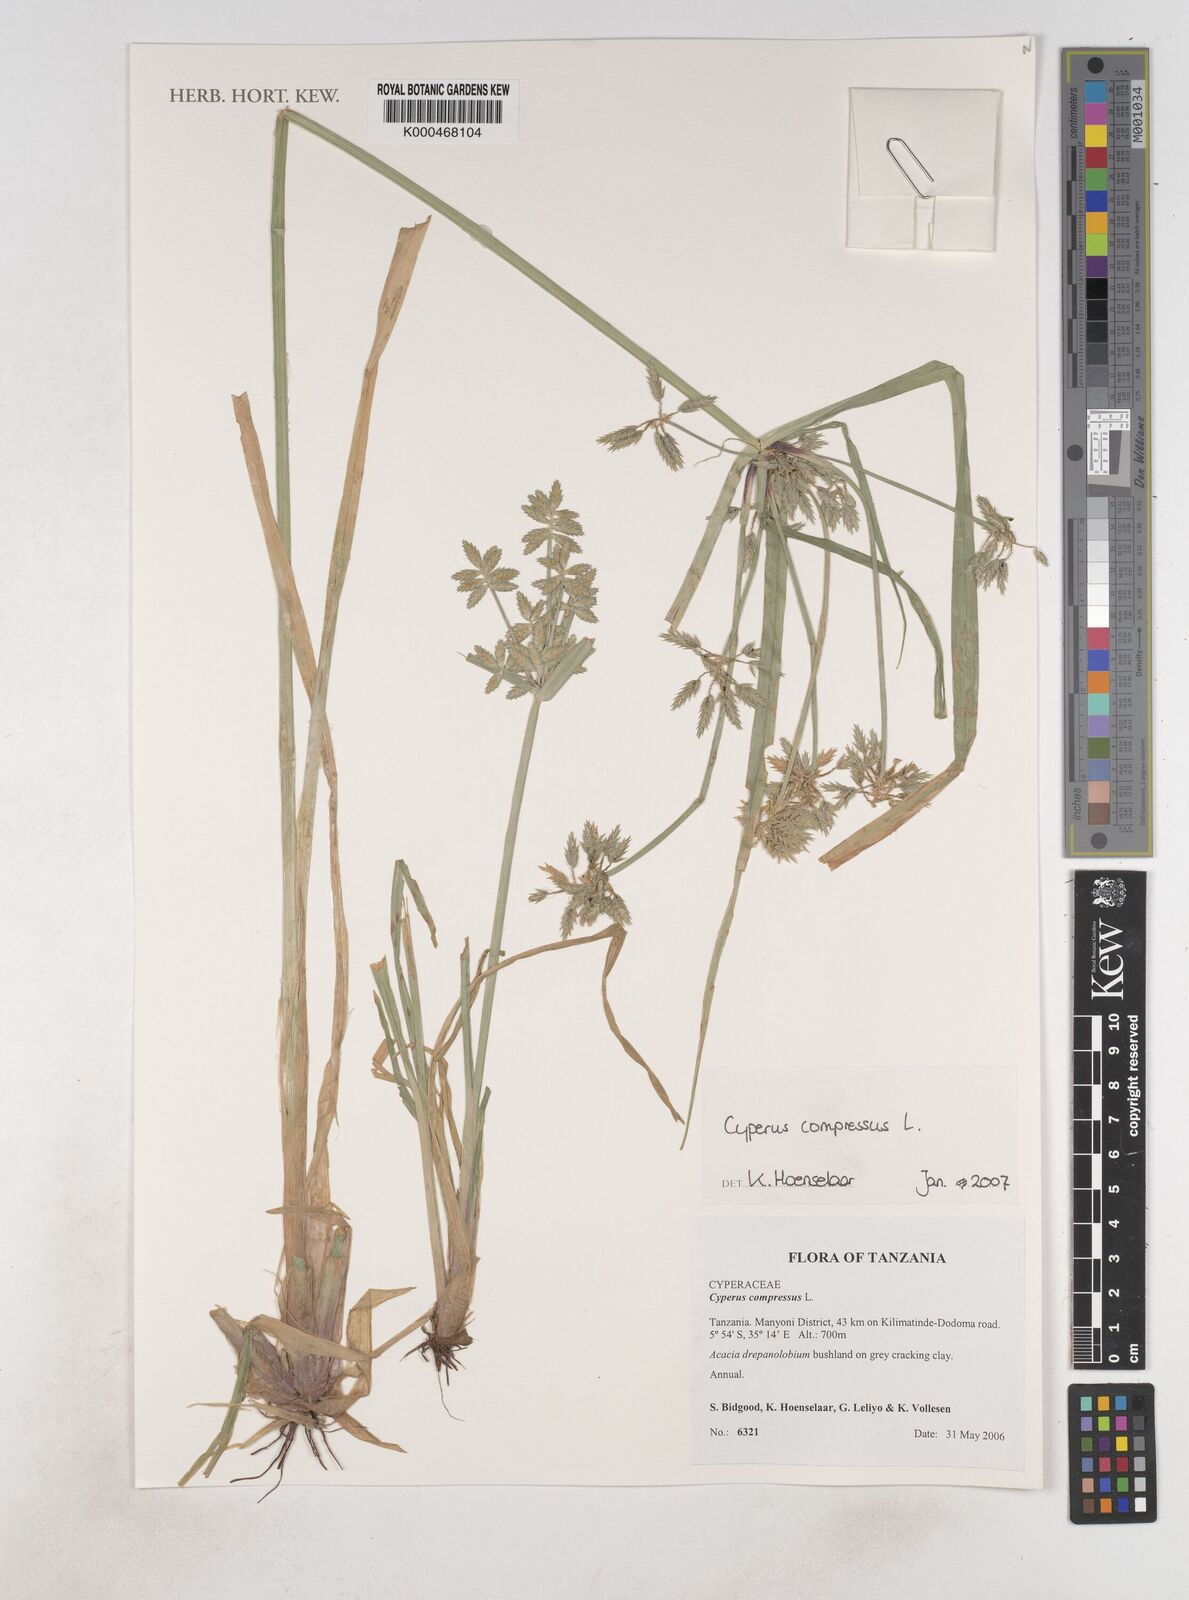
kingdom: Plantae
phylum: Tracheophyta
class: Liliopsida
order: Poales
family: Cyperaceae
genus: Cyperus
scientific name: Cyperus compressus
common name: Poorland flatsedge
